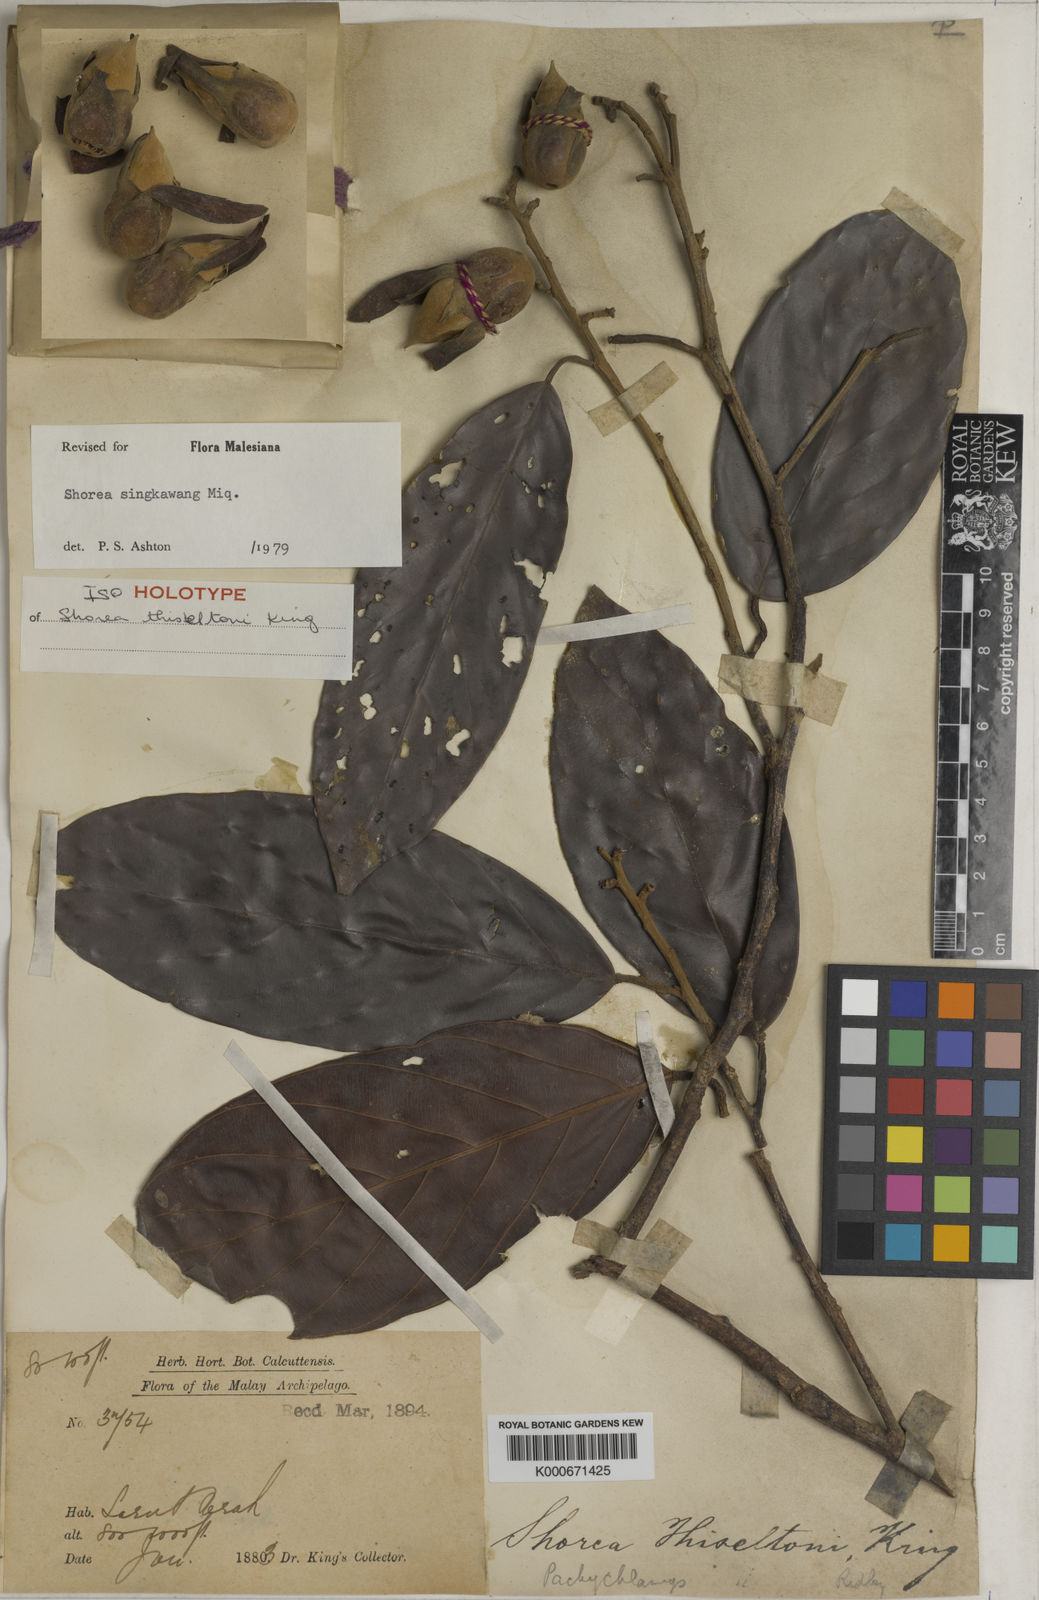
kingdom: Plantae
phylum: Tracheophyta
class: Magnoliopsida
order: Malvales
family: Dipterocarpaceae
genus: Shorea
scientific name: Shorea singkawang
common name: Dark red meranti
